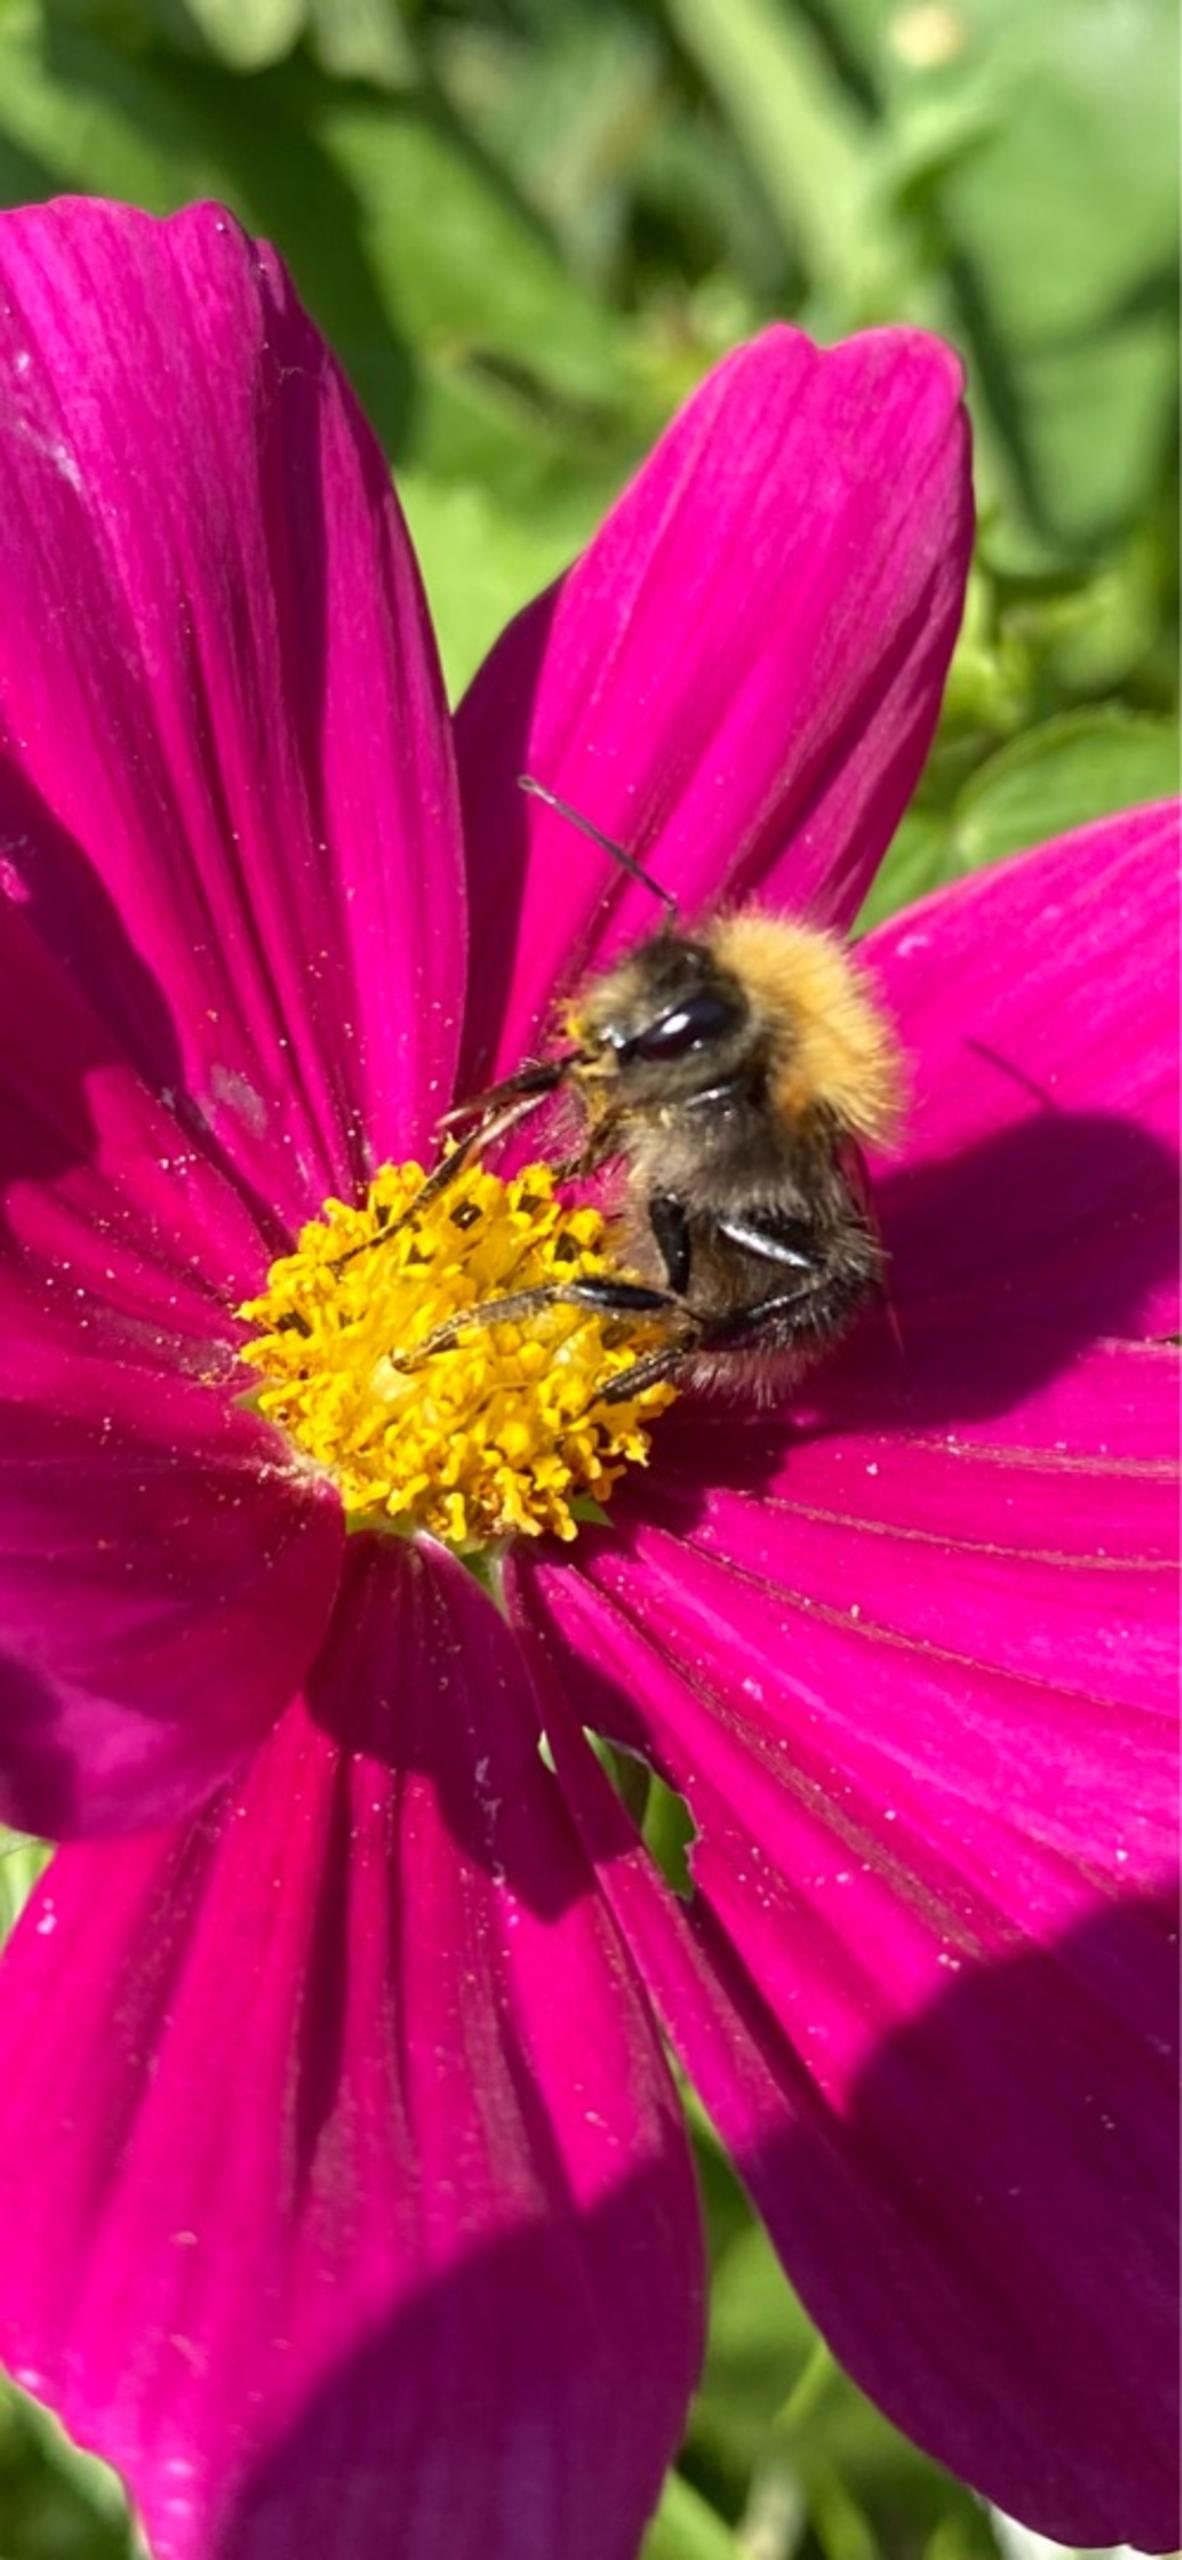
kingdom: Animalia
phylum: Arthropoda
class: Insecta
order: Hymenoptera
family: Apidae
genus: Bombus
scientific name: Bombus hypnorum
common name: Hushumle
